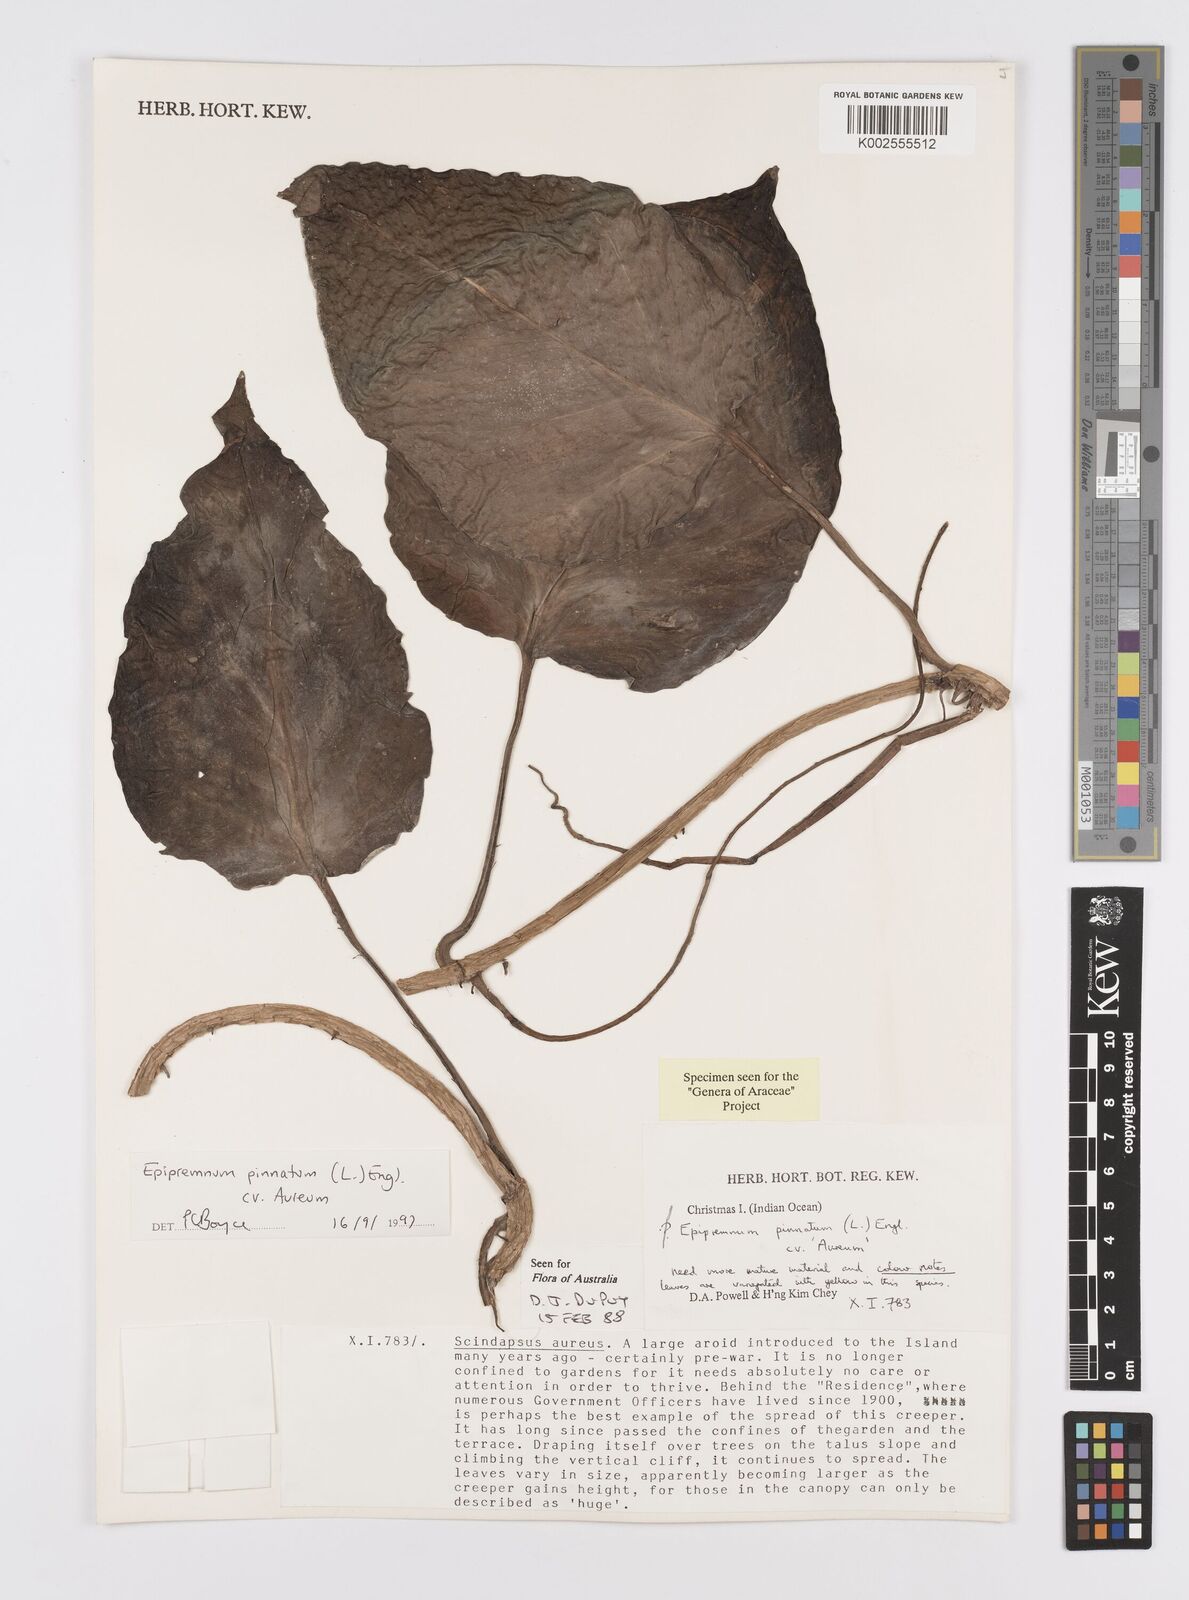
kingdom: Plantae
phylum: Tracheophyta
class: Liliopsida
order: Alismatales
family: Araceae
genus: Epipremnum
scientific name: Epipremnum aureum
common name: Golden hunter's-robe
